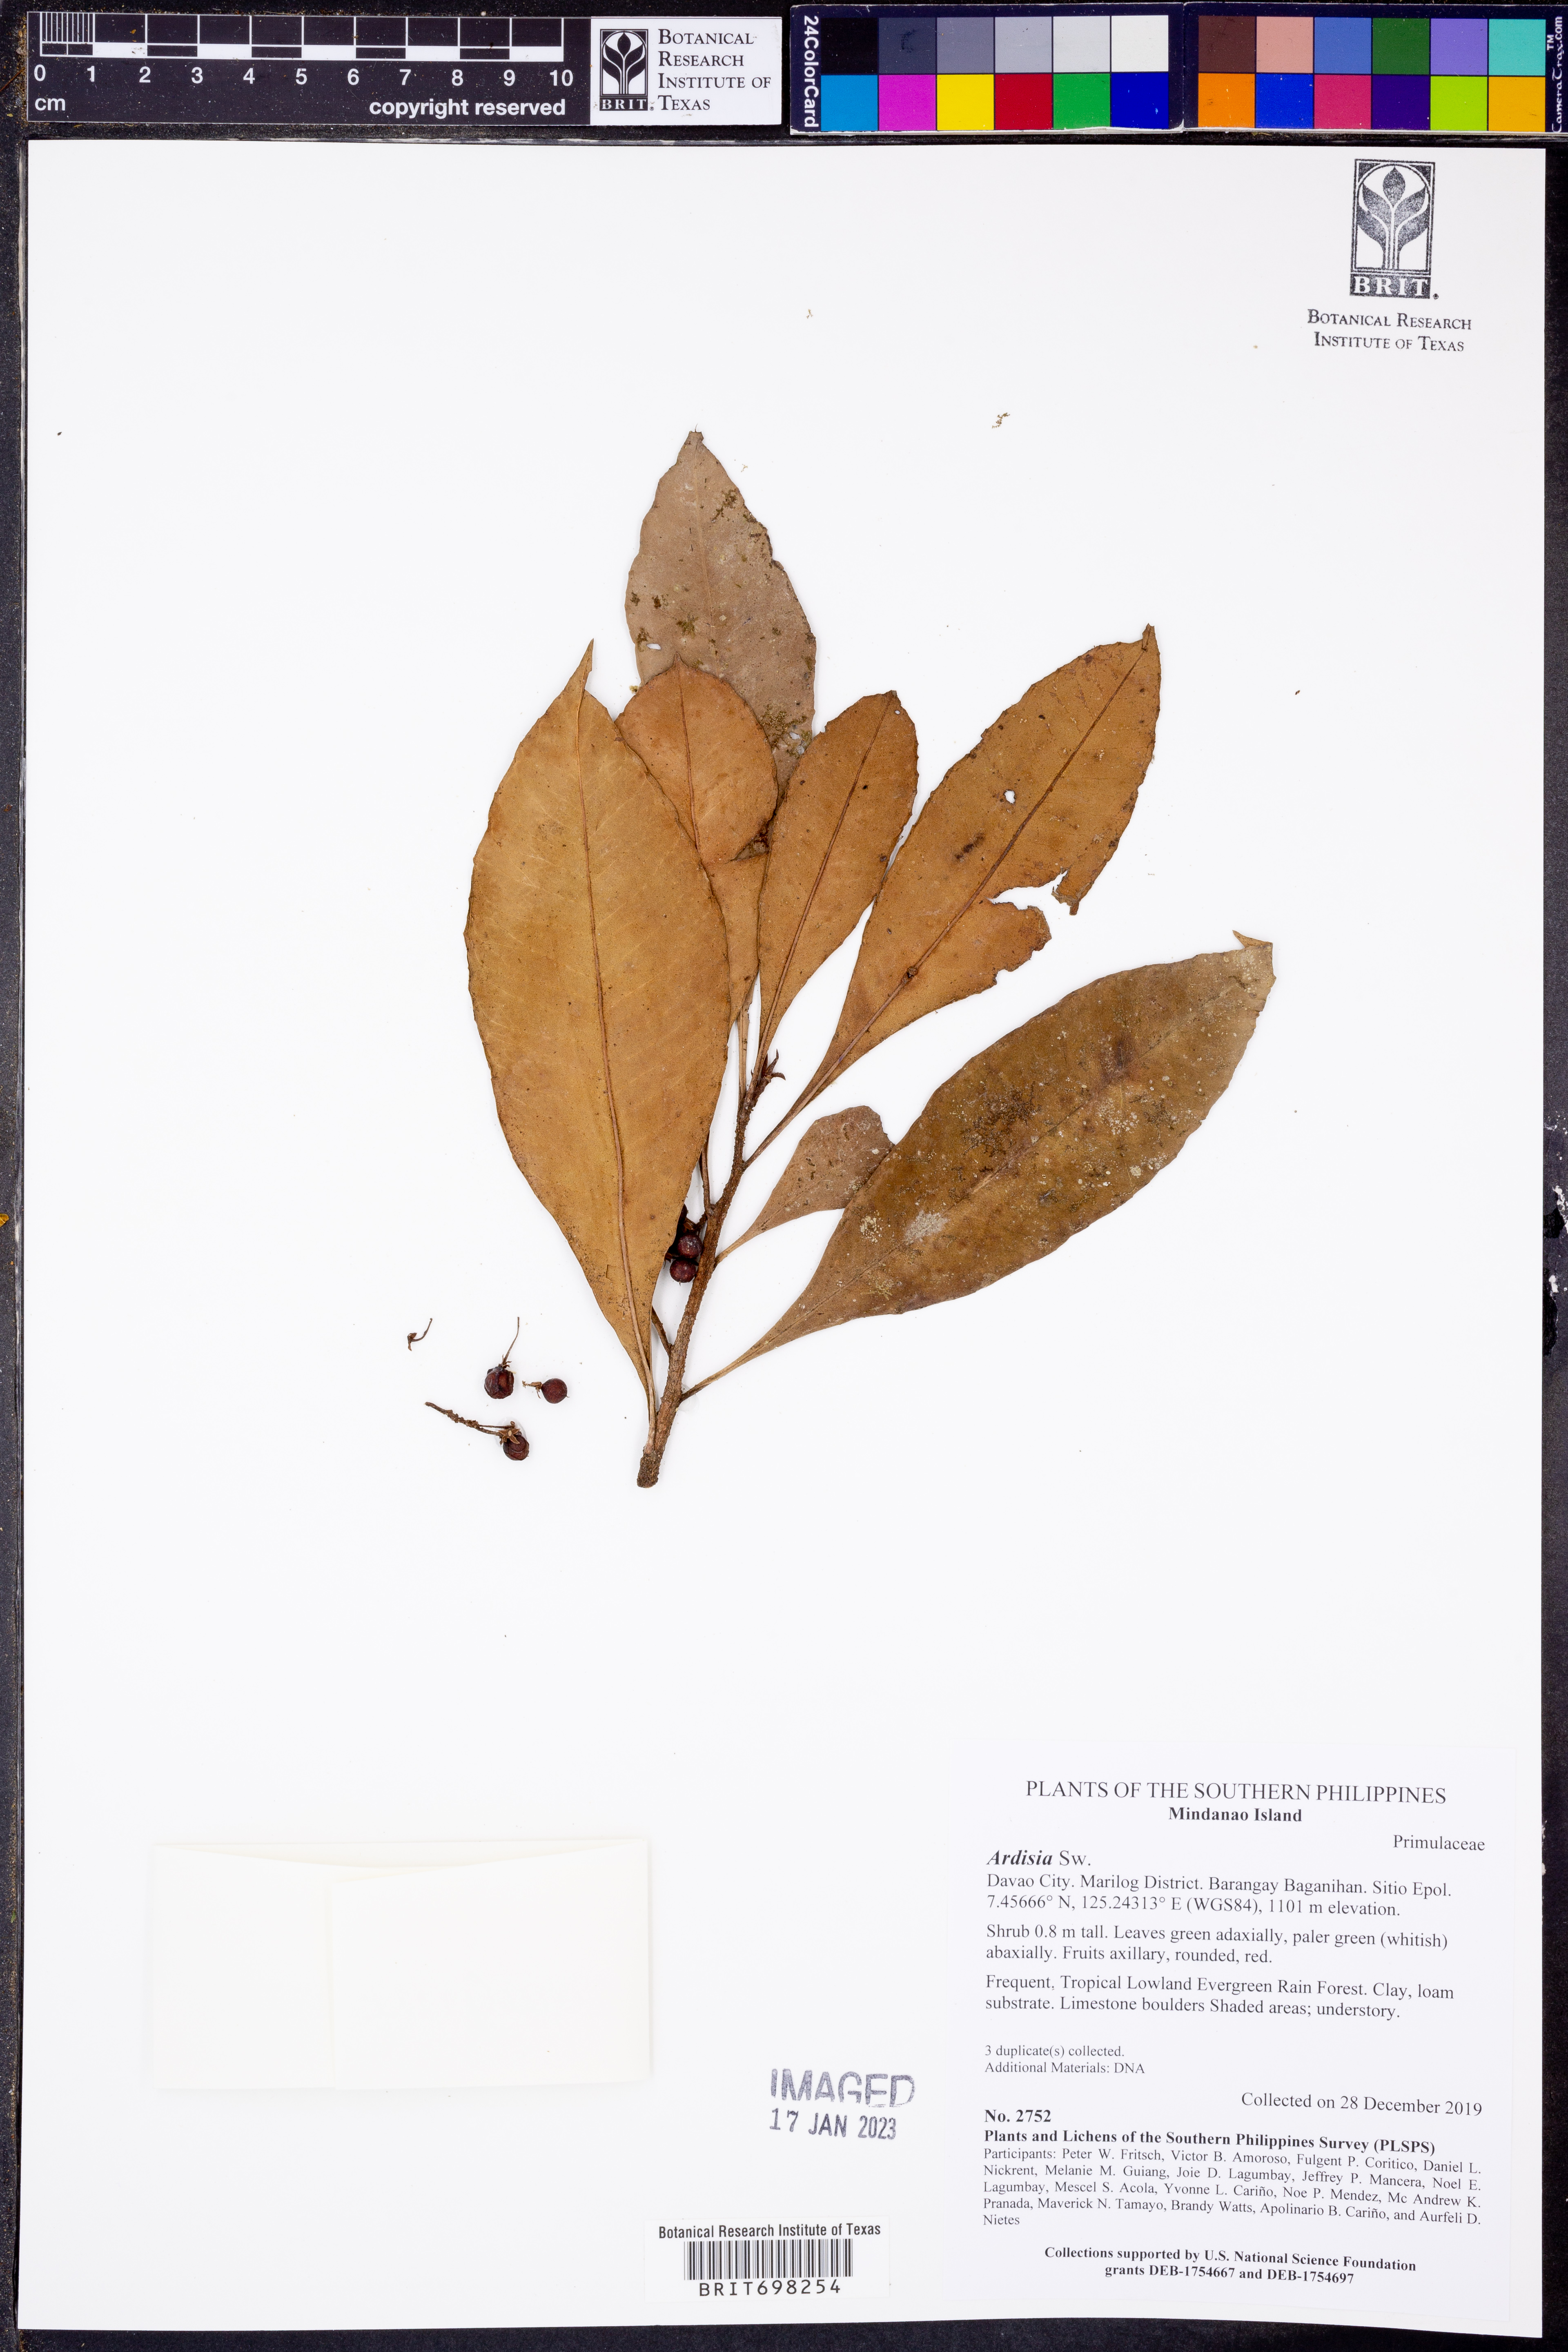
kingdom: Plantae
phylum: Tracheophyta
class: Magnoliopsida
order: Ericales
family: Primulaceae
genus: Ardisia
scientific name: Ardisia
